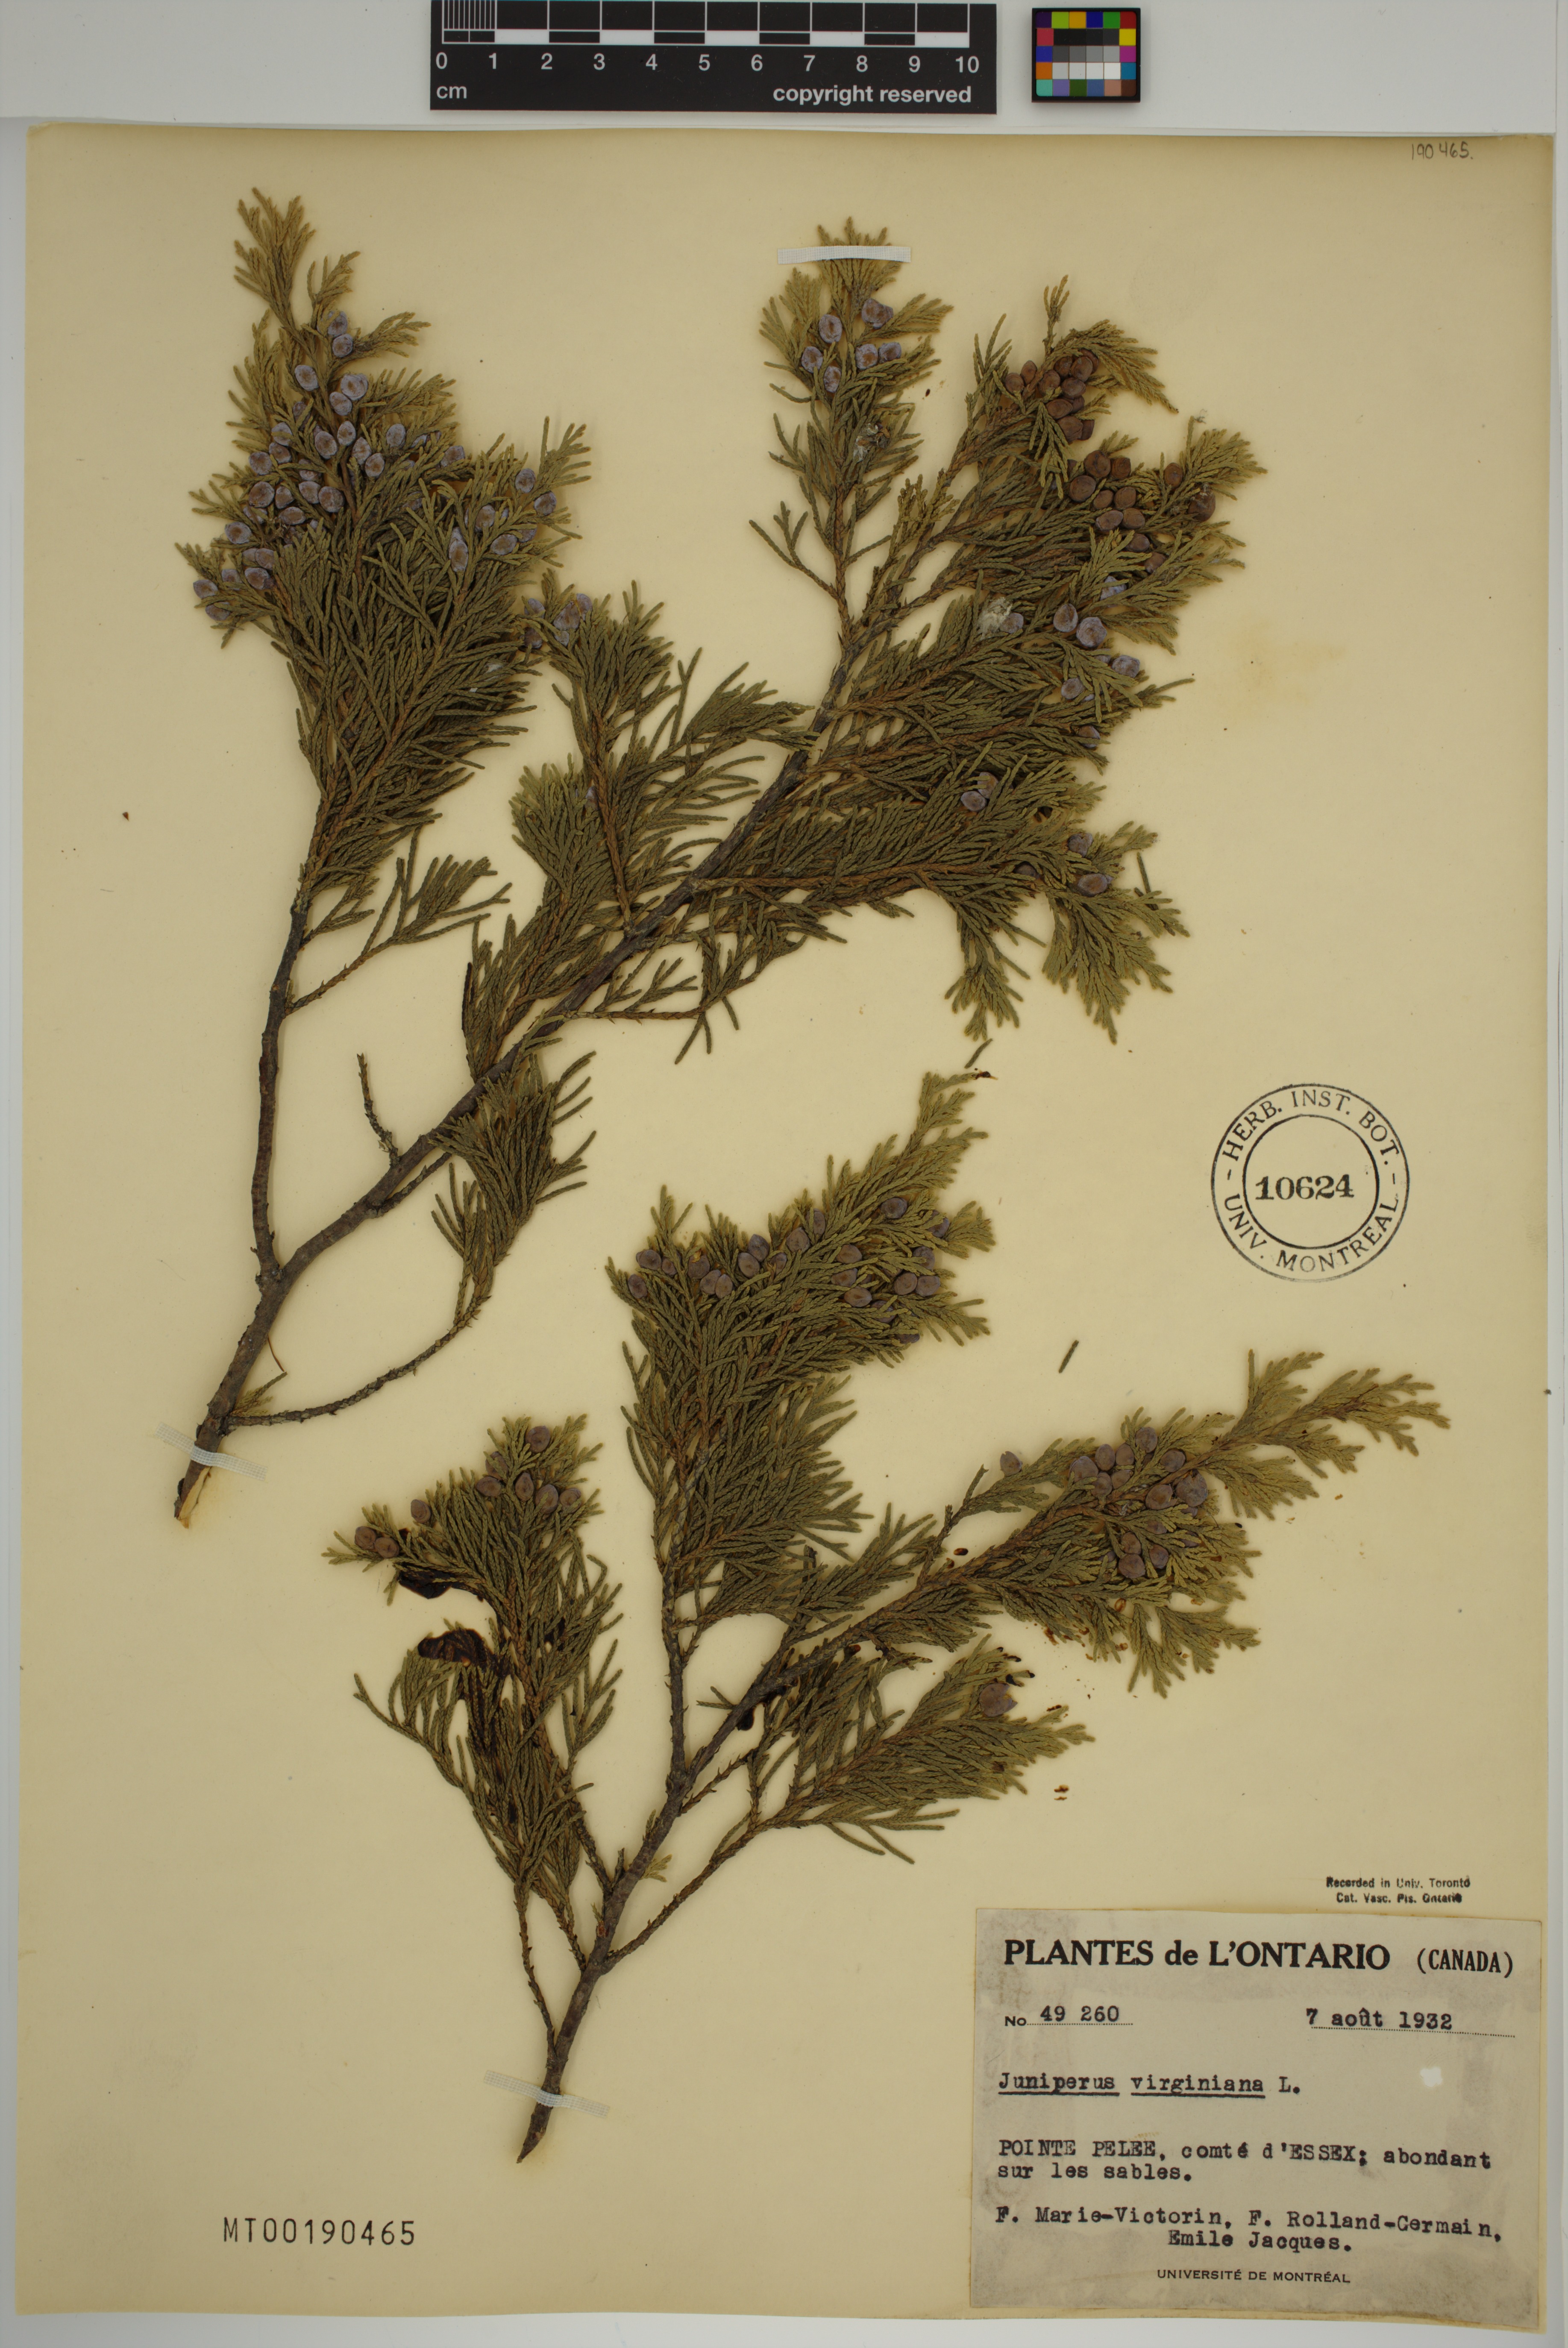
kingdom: Plantae
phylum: Tracheophyta
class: Pinopsida
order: Pinales
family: Cupressaceae
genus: Juniperus
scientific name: Juniperus virginiana
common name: Red juniper
